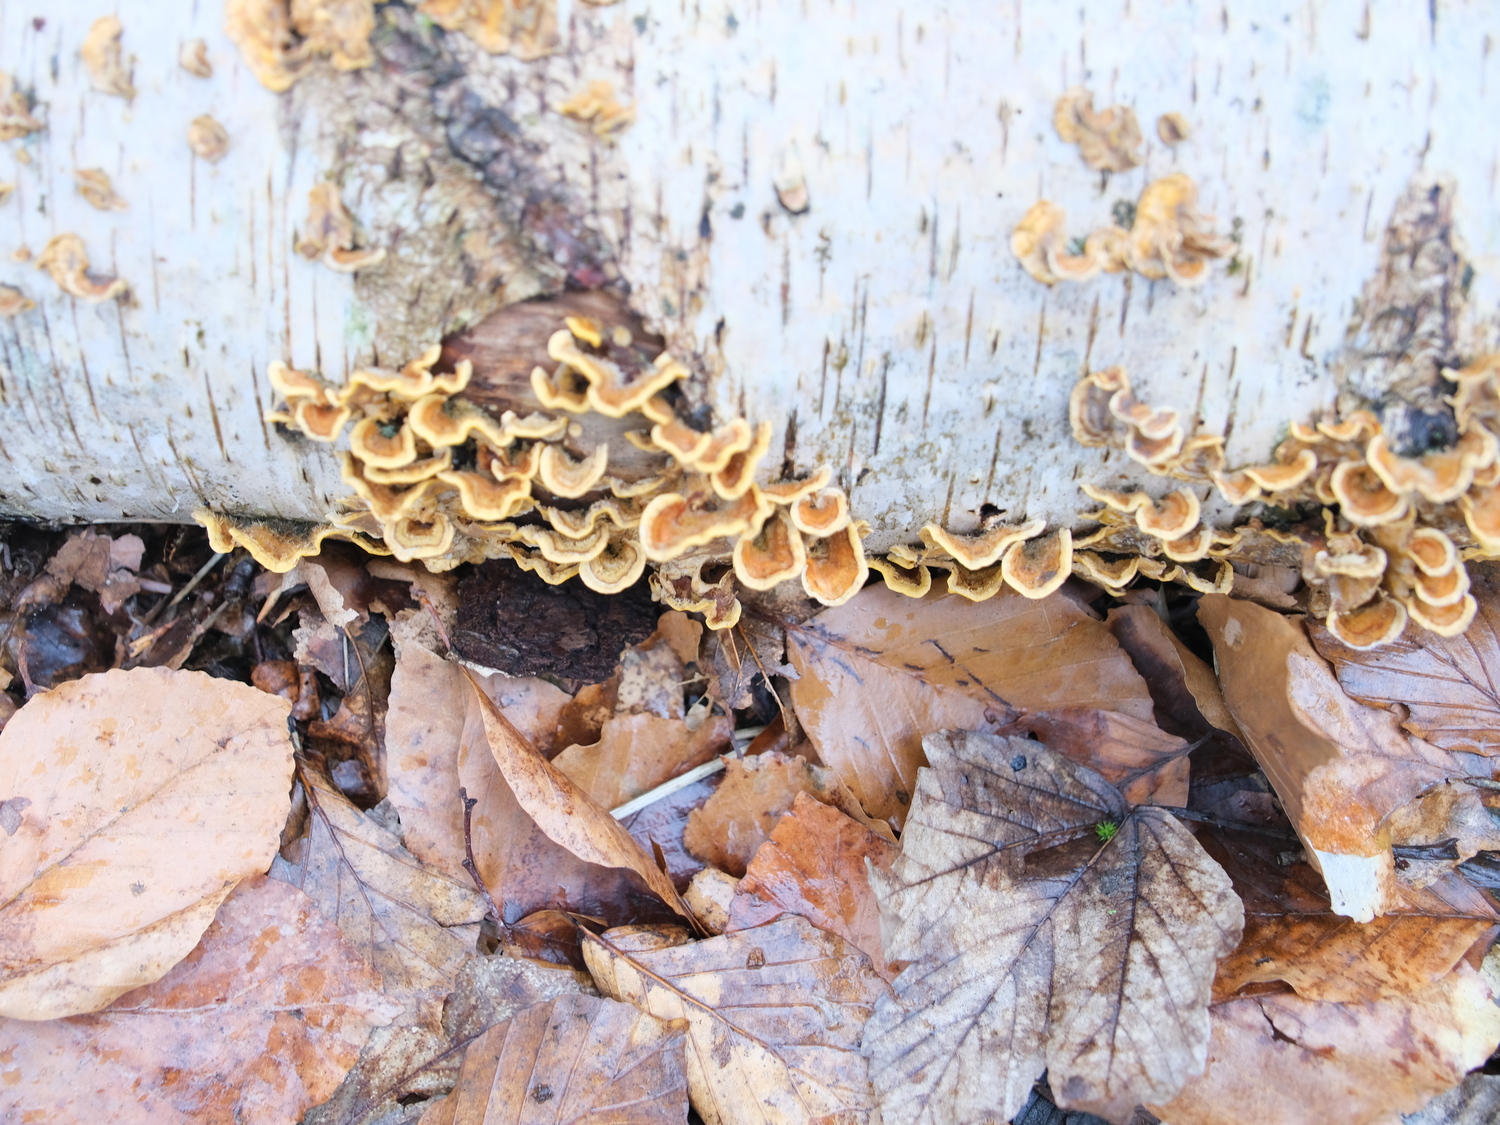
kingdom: Fungi
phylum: Basidiomycota
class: Agaricomycetes
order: Russulales
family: Stereaceae
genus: Stereum
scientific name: Stereum hirsutum
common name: håret lædersvamp
